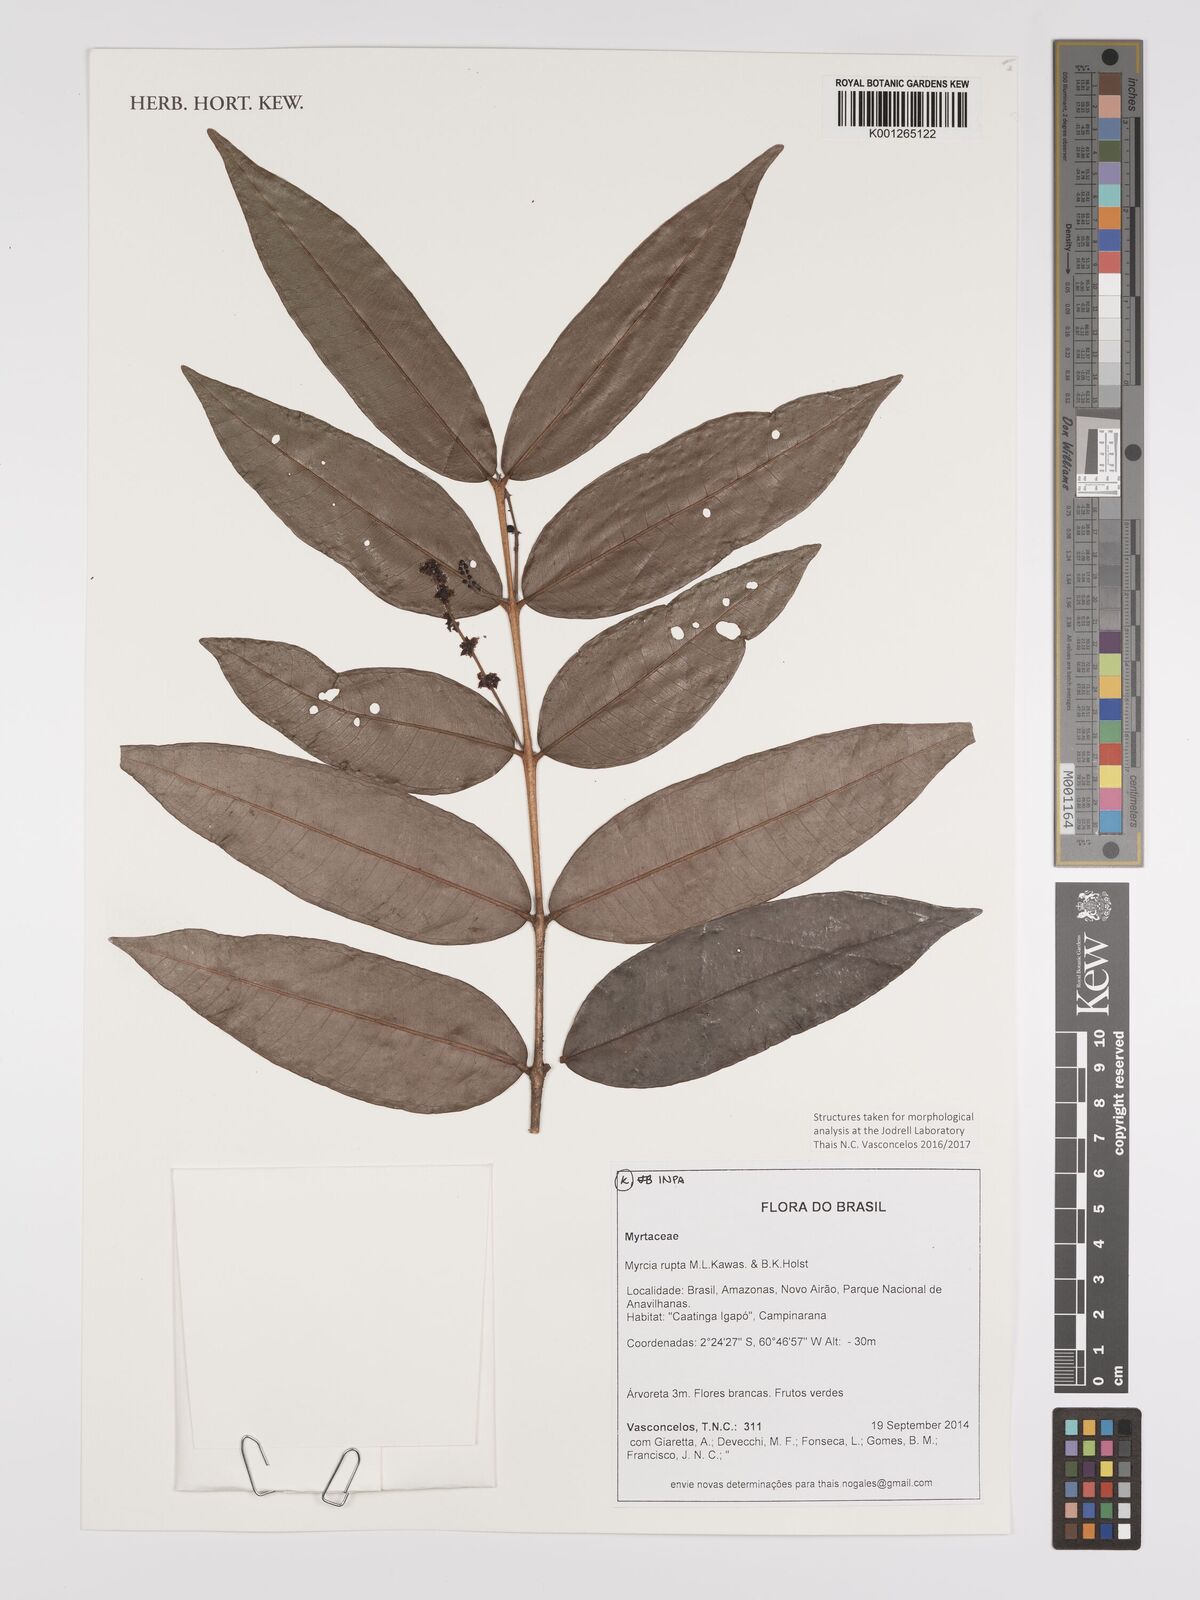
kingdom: Plantae
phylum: Tracheophyta
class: Magnoliopsida
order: Myrtales
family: Myrtaceae
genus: Myrcia
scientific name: Myrcia rupta
